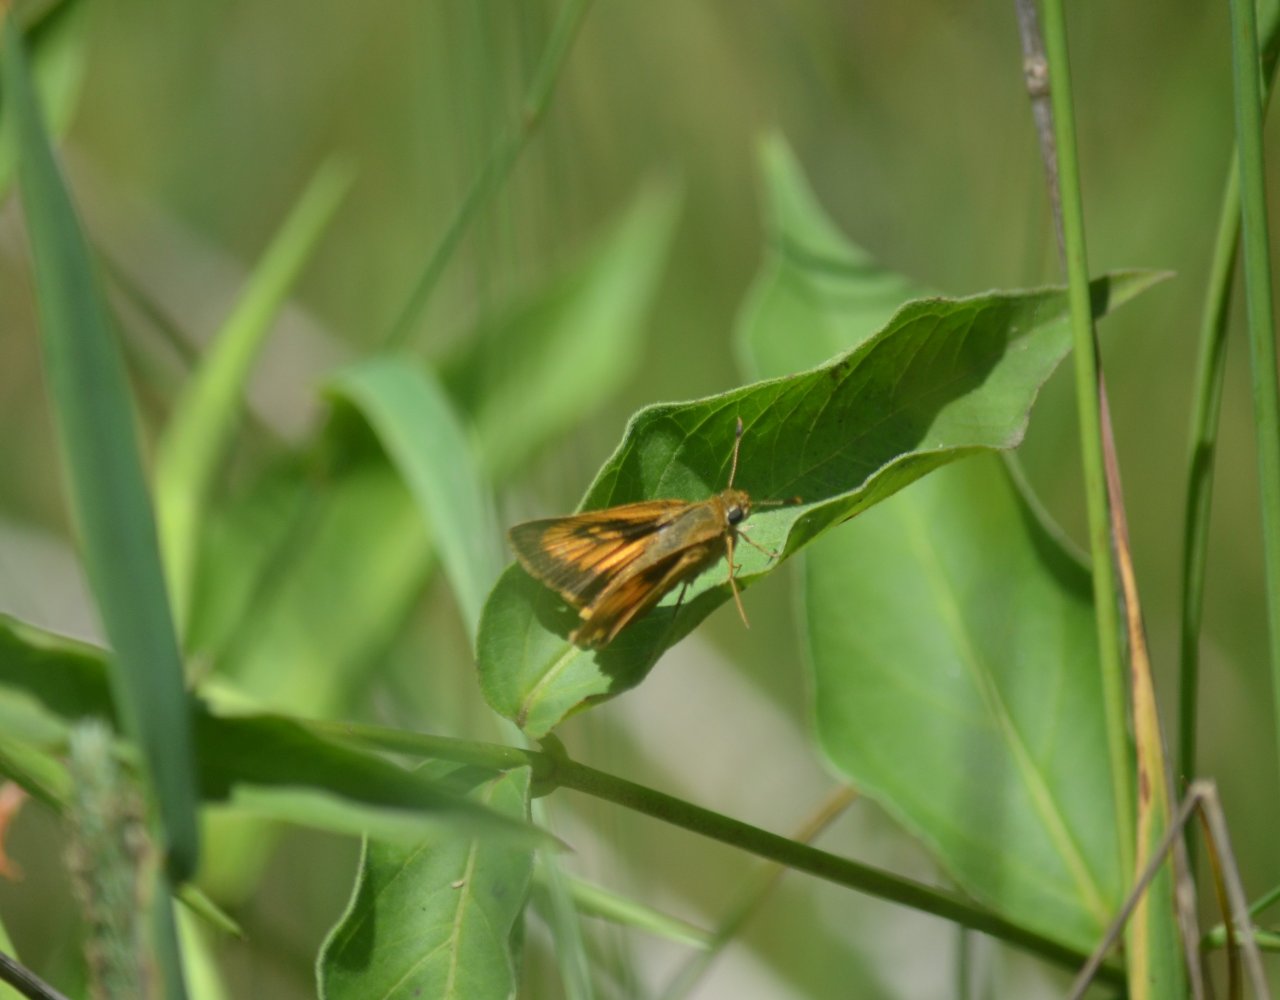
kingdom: Animalia
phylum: Arthropoda
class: Insecta
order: Lepidoptera
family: Hesperiidae
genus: Atrytone
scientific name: Atrytone delaware
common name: Delaware Skipper
